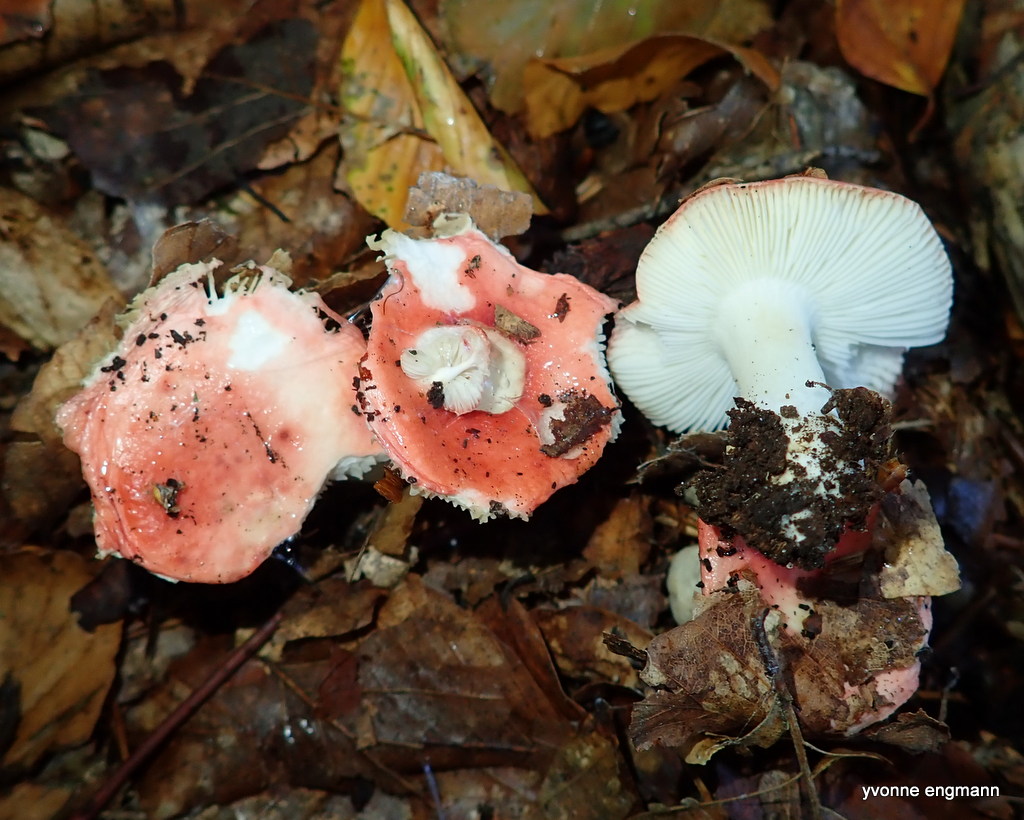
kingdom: Fungi
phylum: Basidiomycota
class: Agaricomycetes
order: Russulales
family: Russulaceae
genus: Russula
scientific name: Russula
